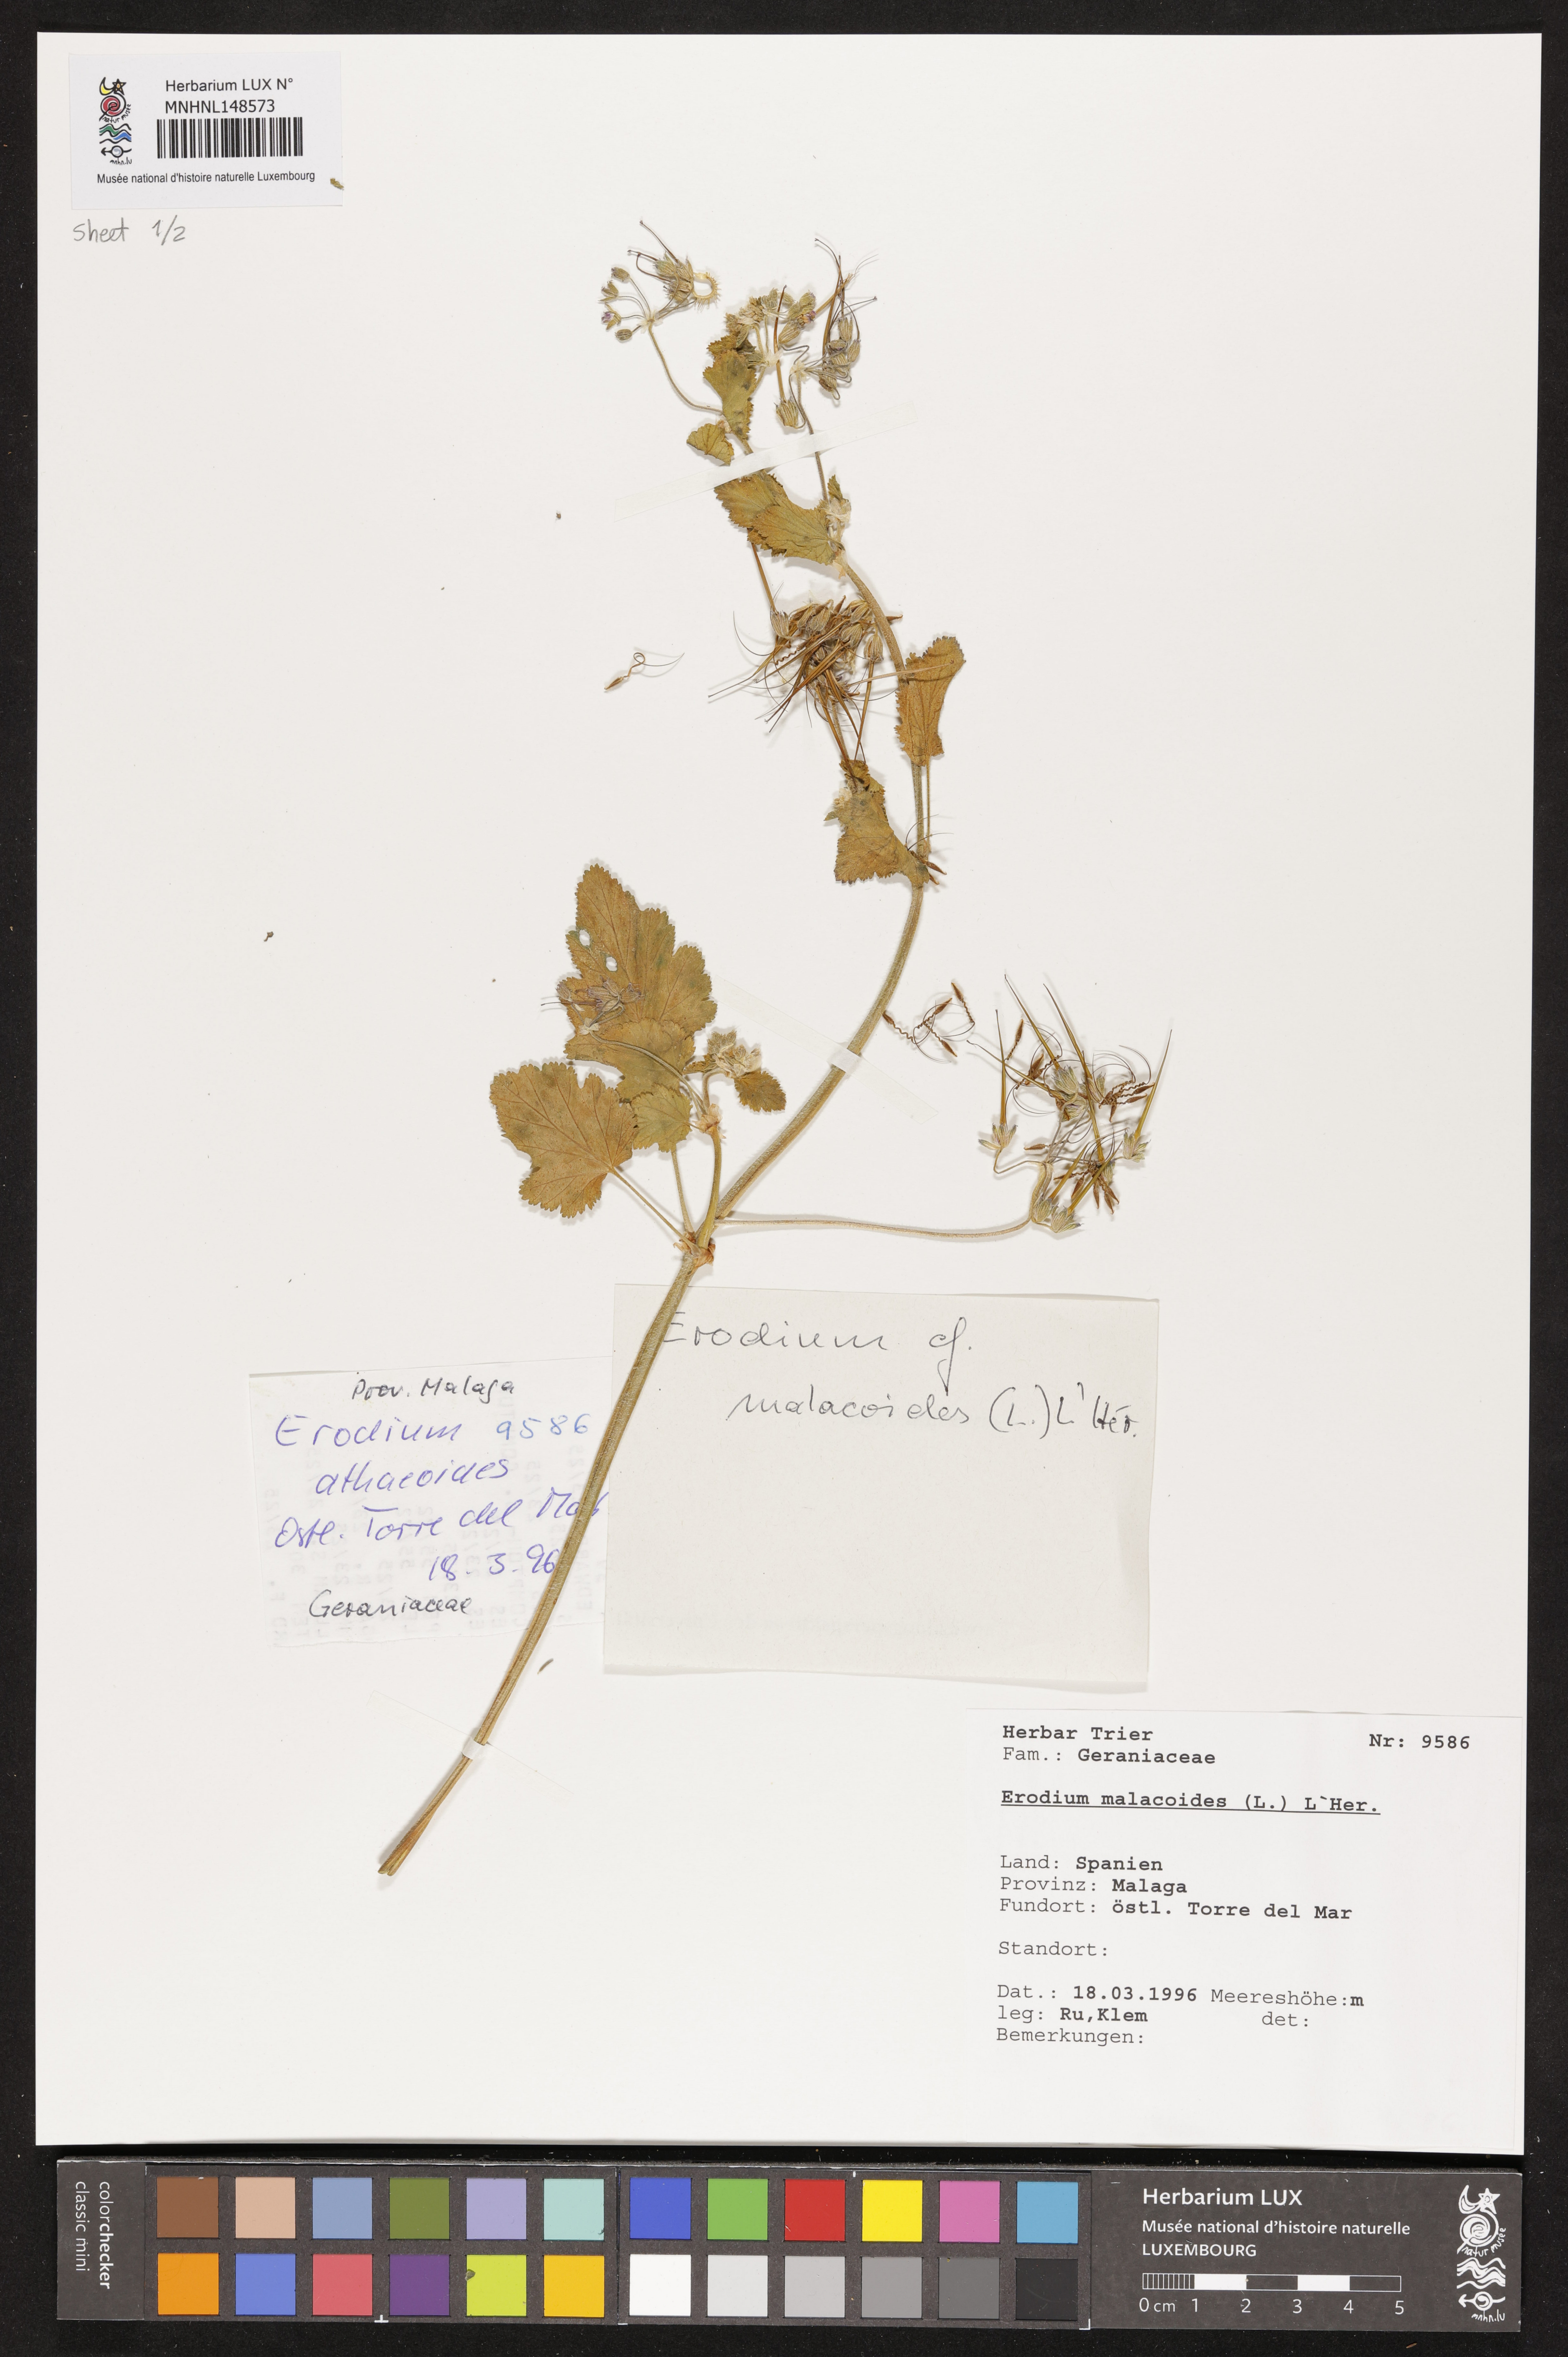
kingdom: Plantae
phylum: Tracheophyta
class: Magnoliopsida
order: Geraniales
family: Geraniaceae
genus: Erodium
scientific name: Erodium malacoides
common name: Soft stork's-bill
